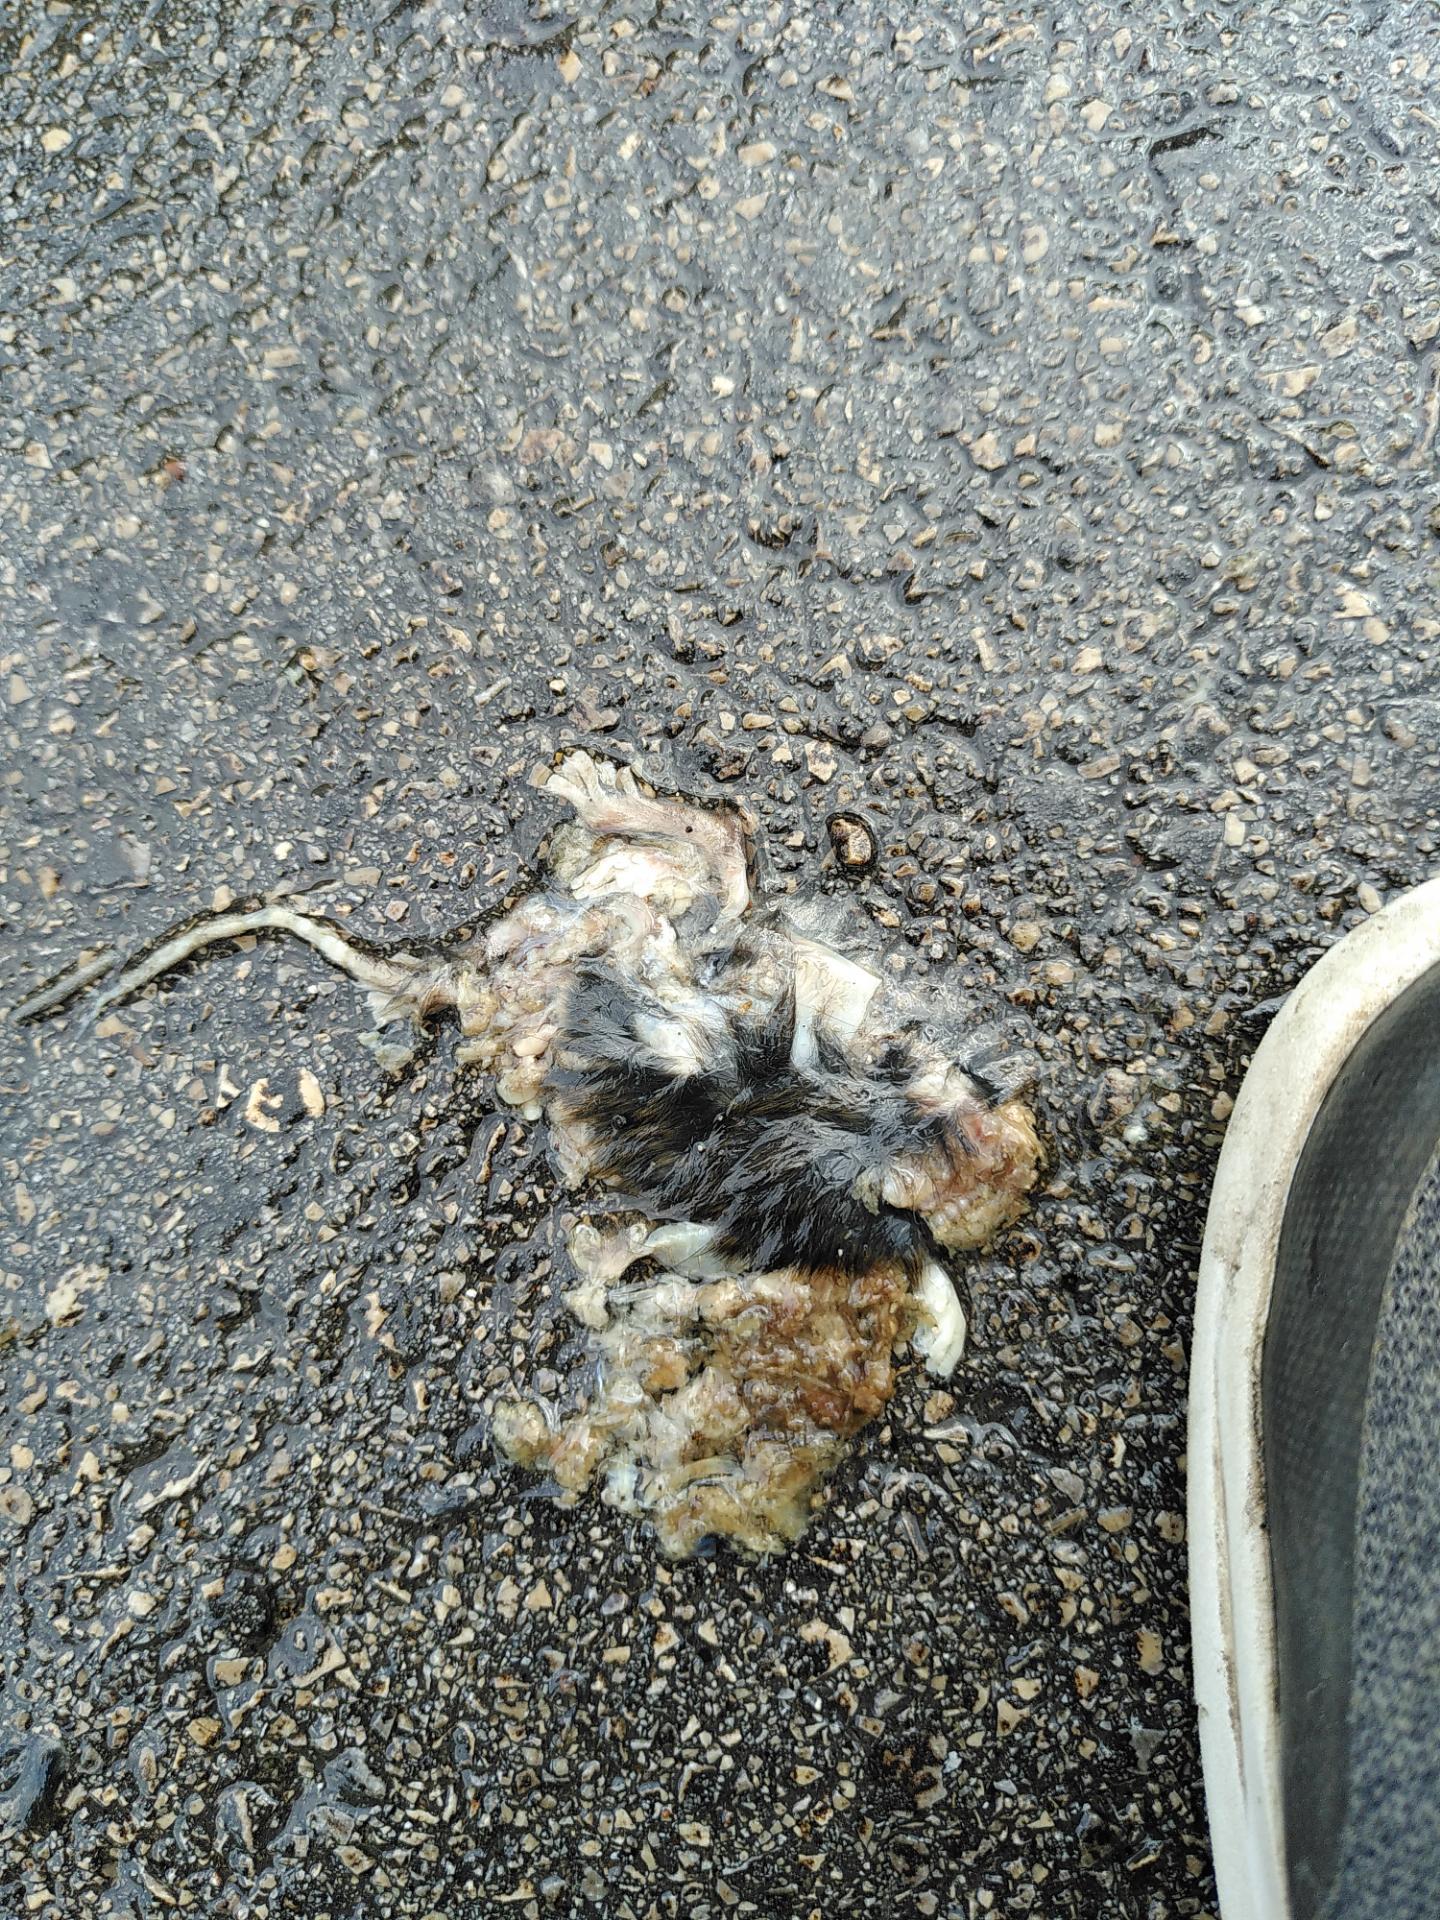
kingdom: Animalia
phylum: Chordata
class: Mammalia
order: Soricomorpha
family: Soricidae
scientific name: Soricidae
